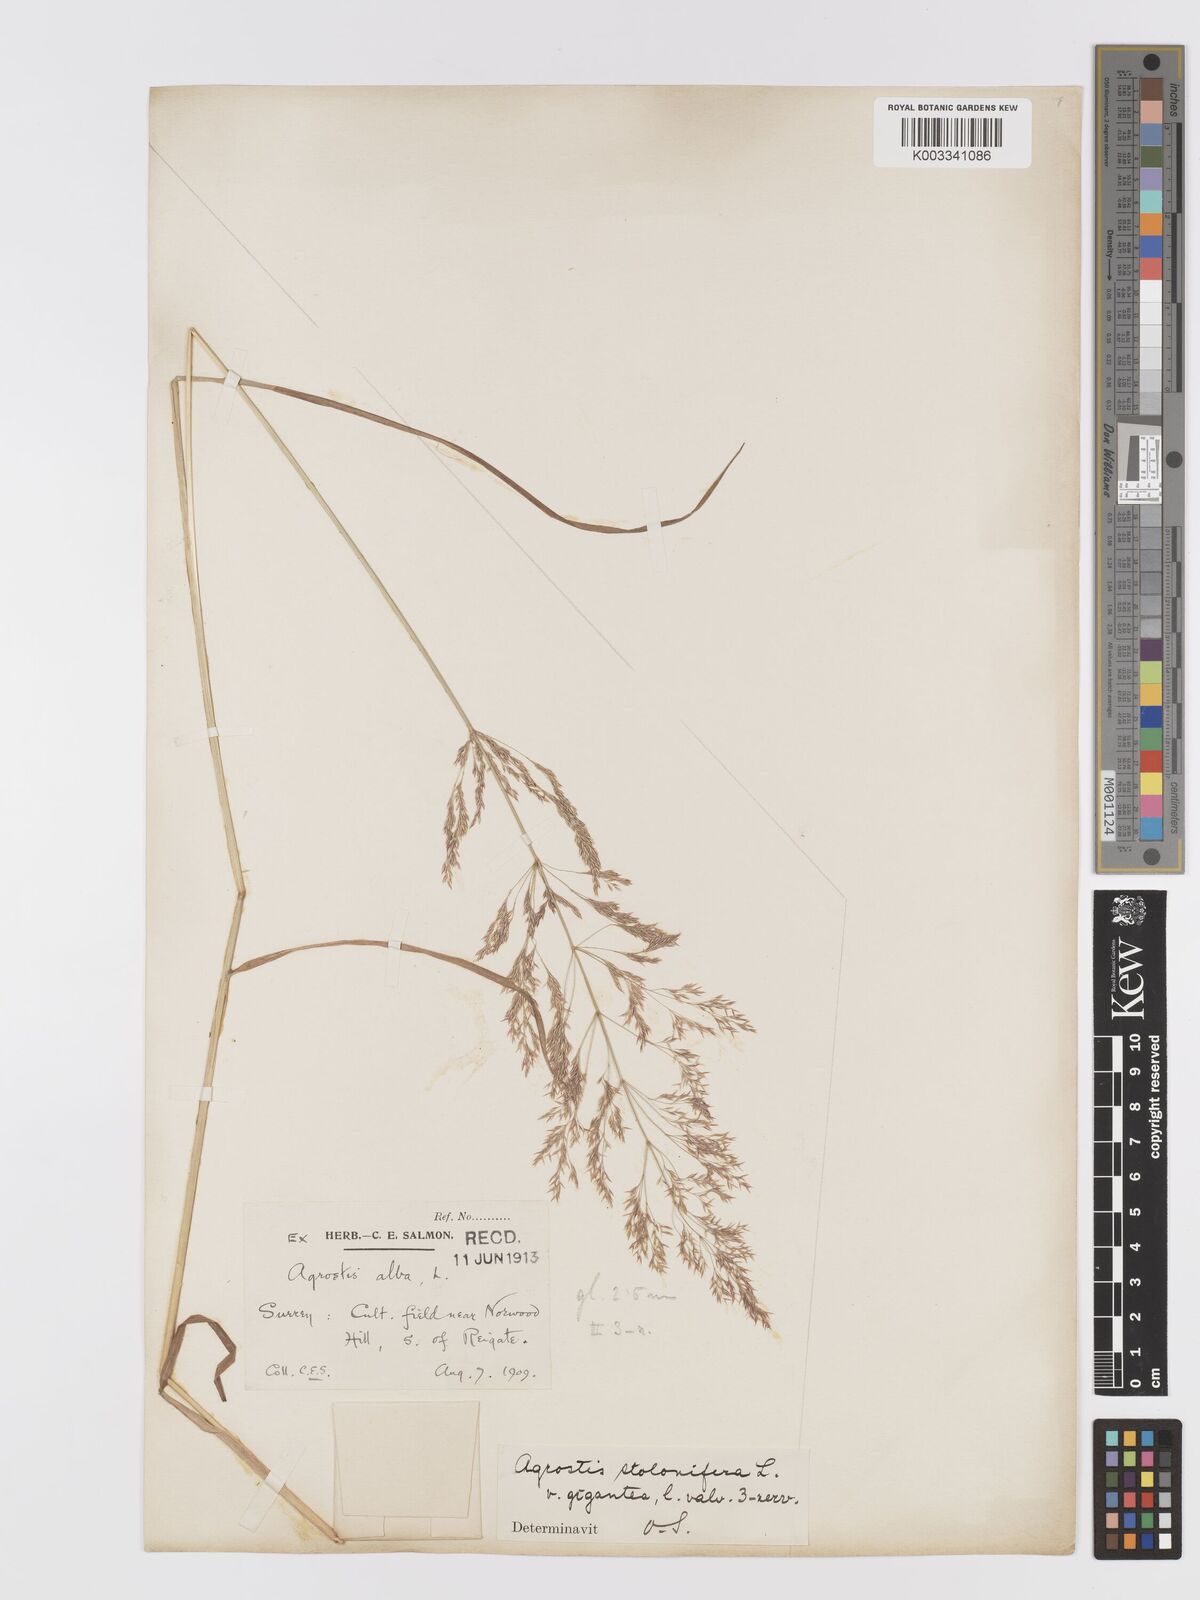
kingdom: Plantae
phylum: Tracheophyta
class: Liliopsida
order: Poales
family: Poaceae
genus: Agrostis
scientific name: Agrostis gigantea
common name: Black bent
